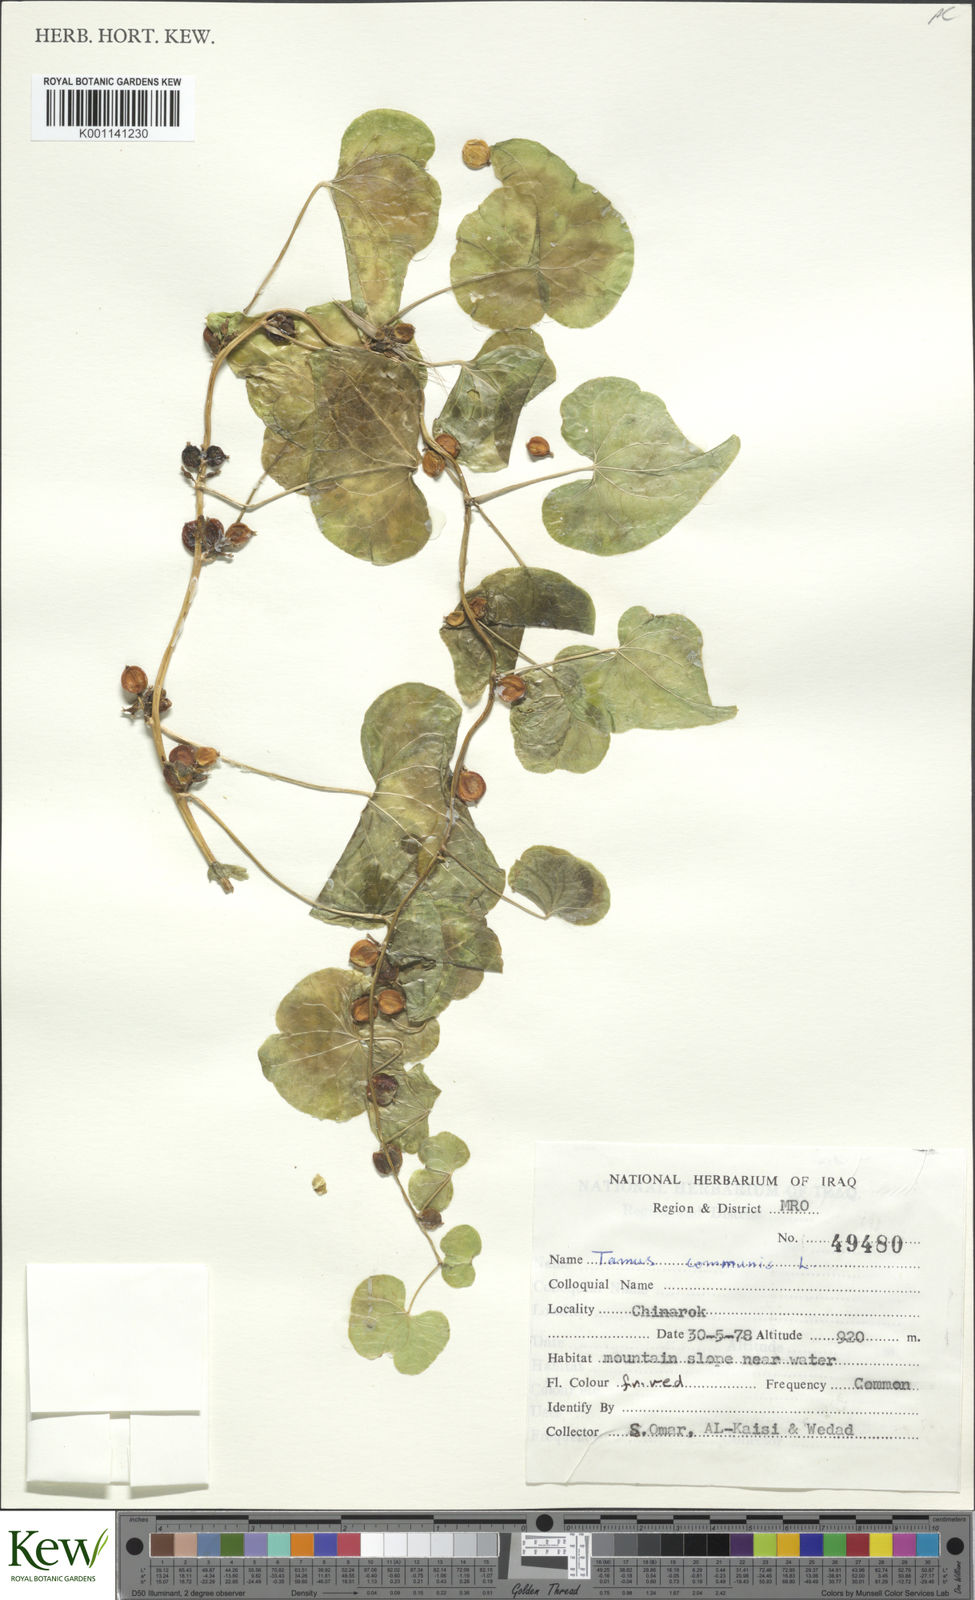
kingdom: Plantae
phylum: Tracheophyta
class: Liliopsida
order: Dioscoreales
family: Dioscoreaceae
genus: Dioscorea
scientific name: Dioscorea communis
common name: Black-bindweed
